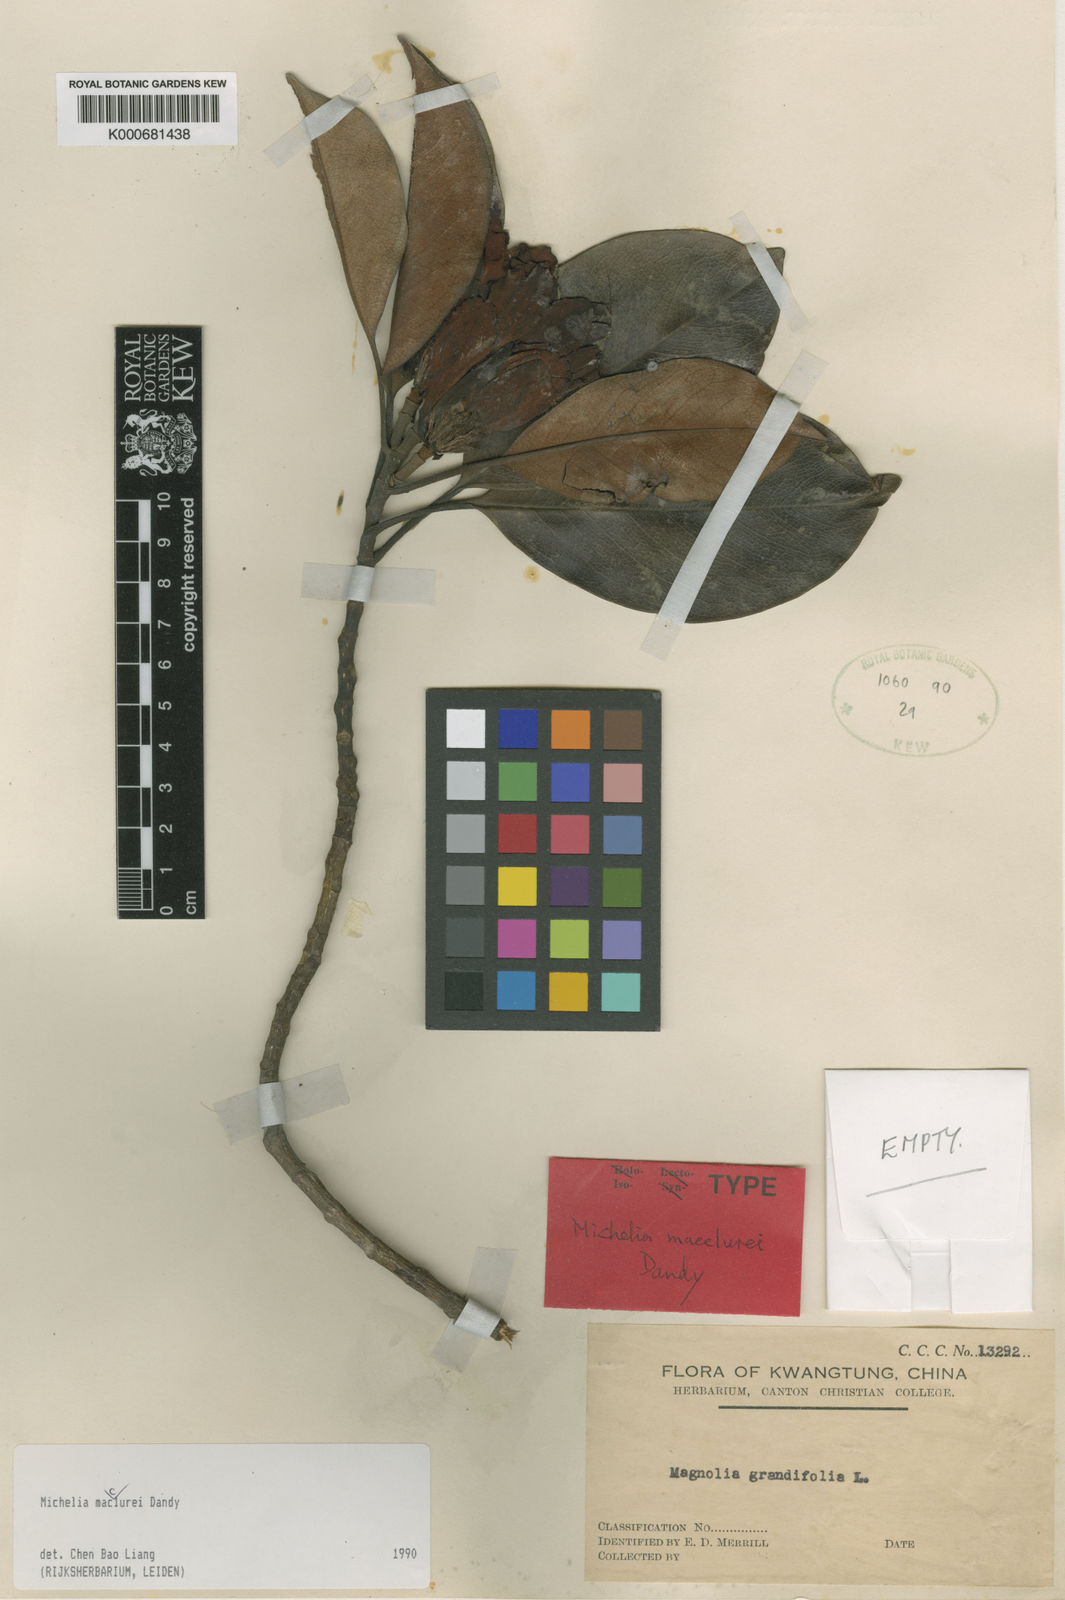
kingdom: Plantae
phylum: Tracheophyta
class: Magnoliopsida
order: Magnoliales
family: Magnoliaceae
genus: Magnolia
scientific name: Magnolia mediocris
